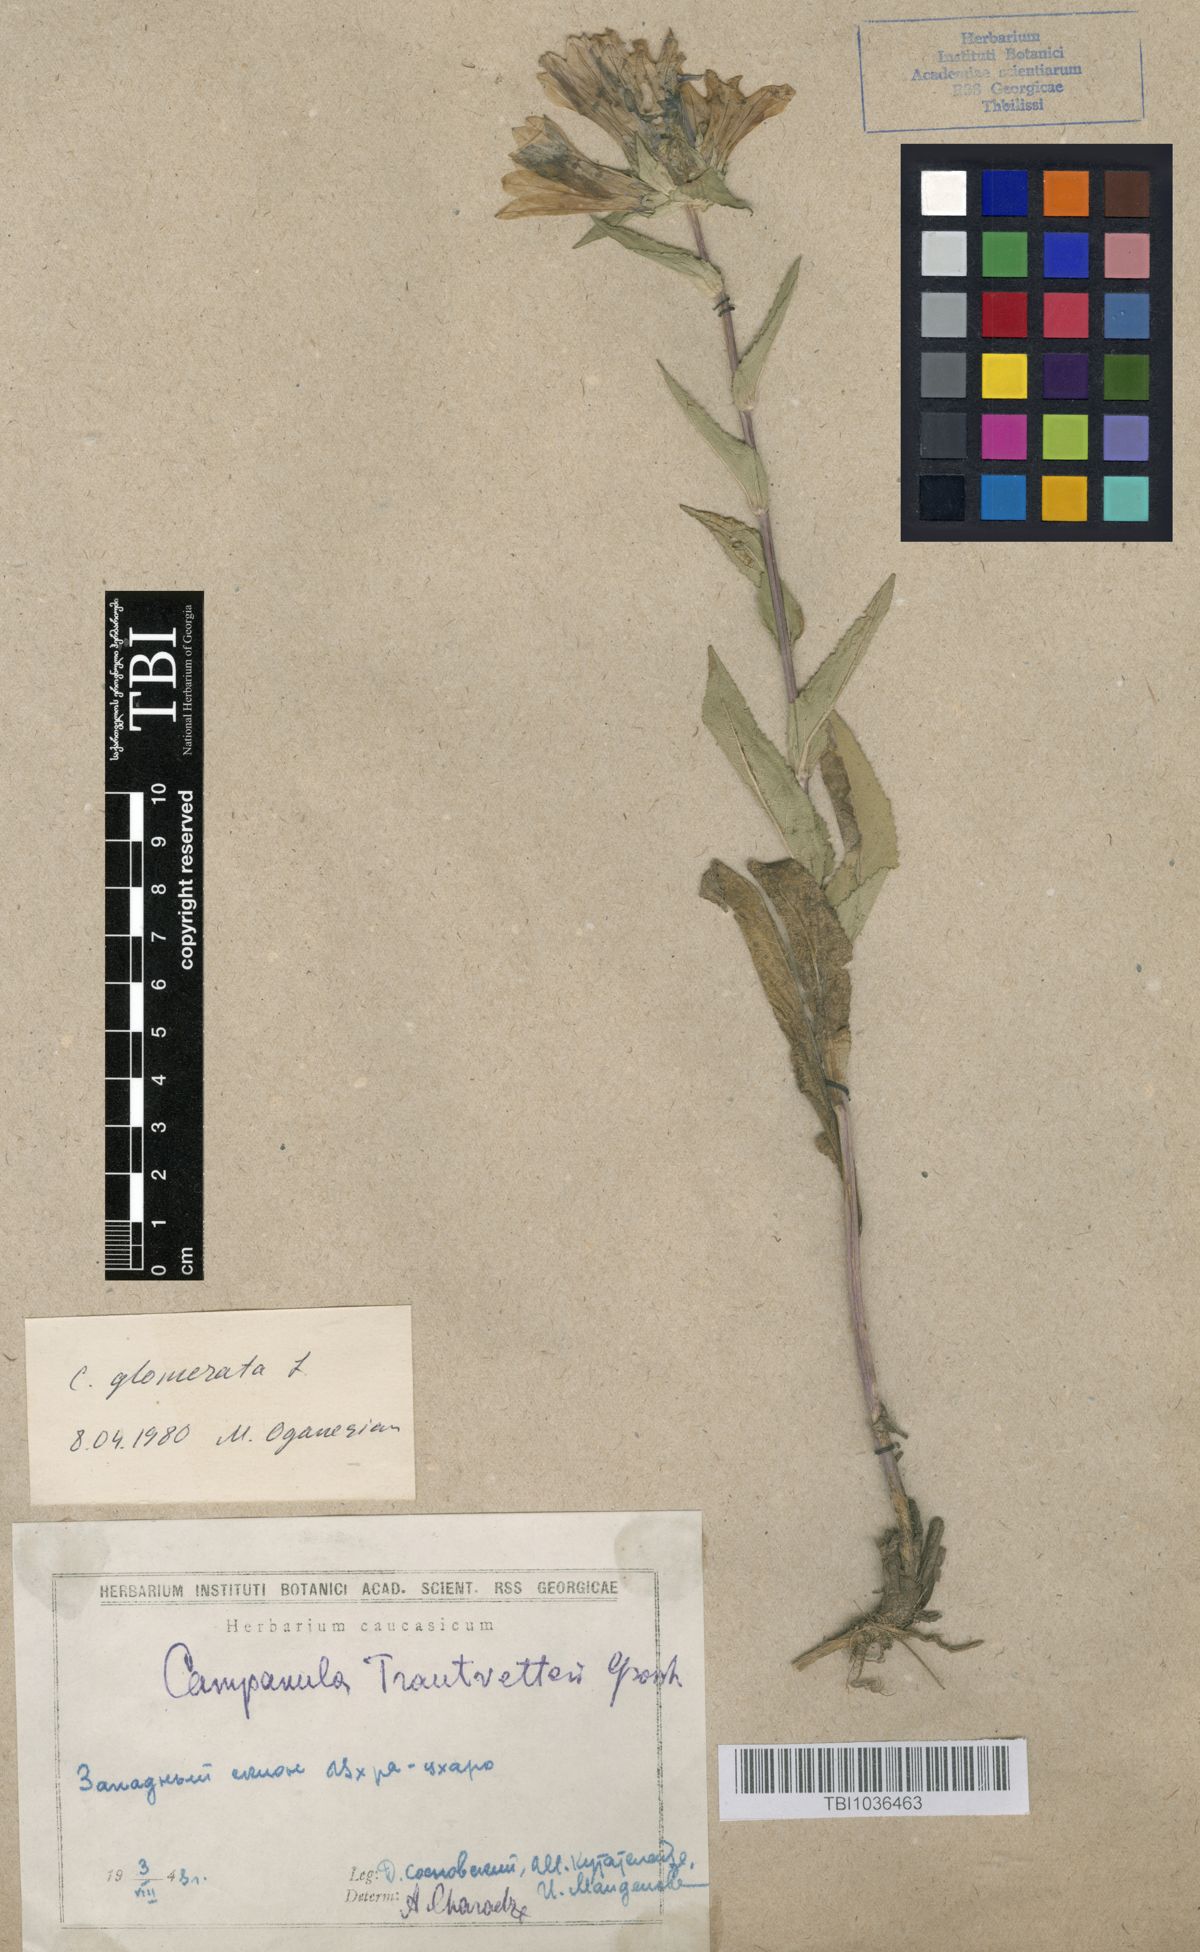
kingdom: Plantae
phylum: Tracheophyta
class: Magnoliopsida
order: Asterales
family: Campanulaceae
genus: Campanula
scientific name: Campanula glomerata
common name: Clustered bellflower
